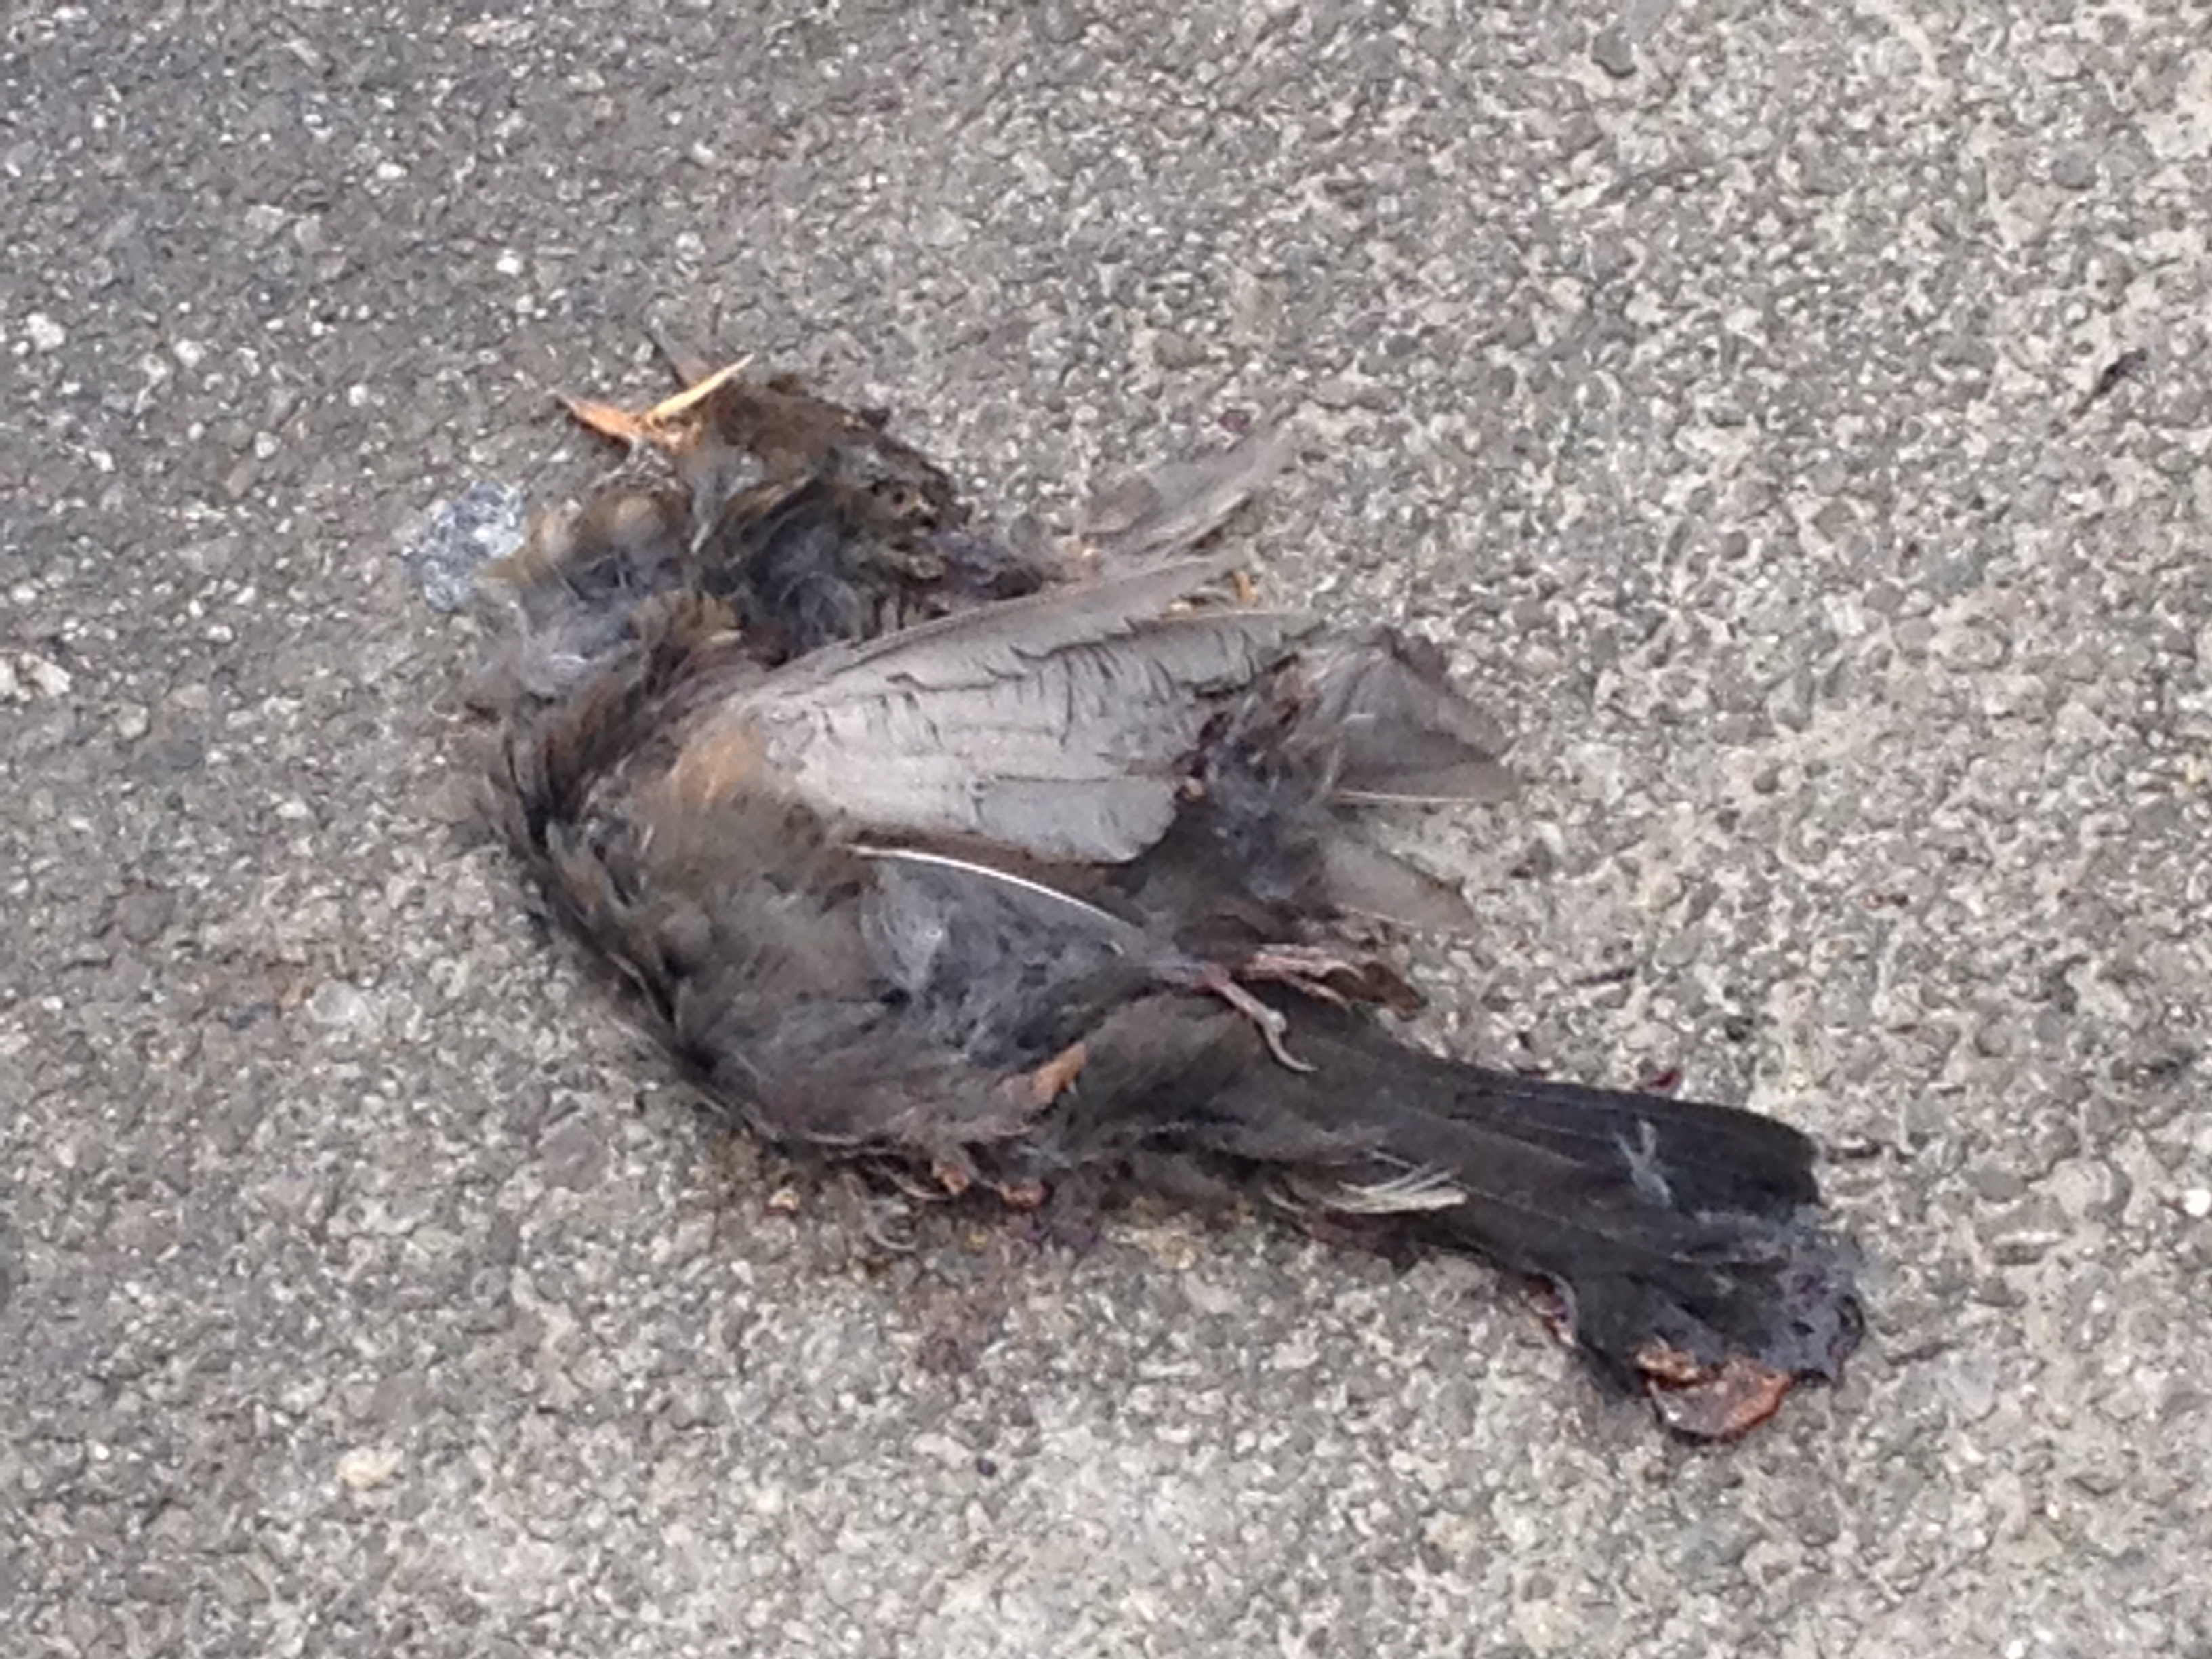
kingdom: Animalia
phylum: Chordata
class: Aves
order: Passeriformes
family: Turdidae
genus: Turdus
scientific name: Turdus merula
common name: Common blackbird
